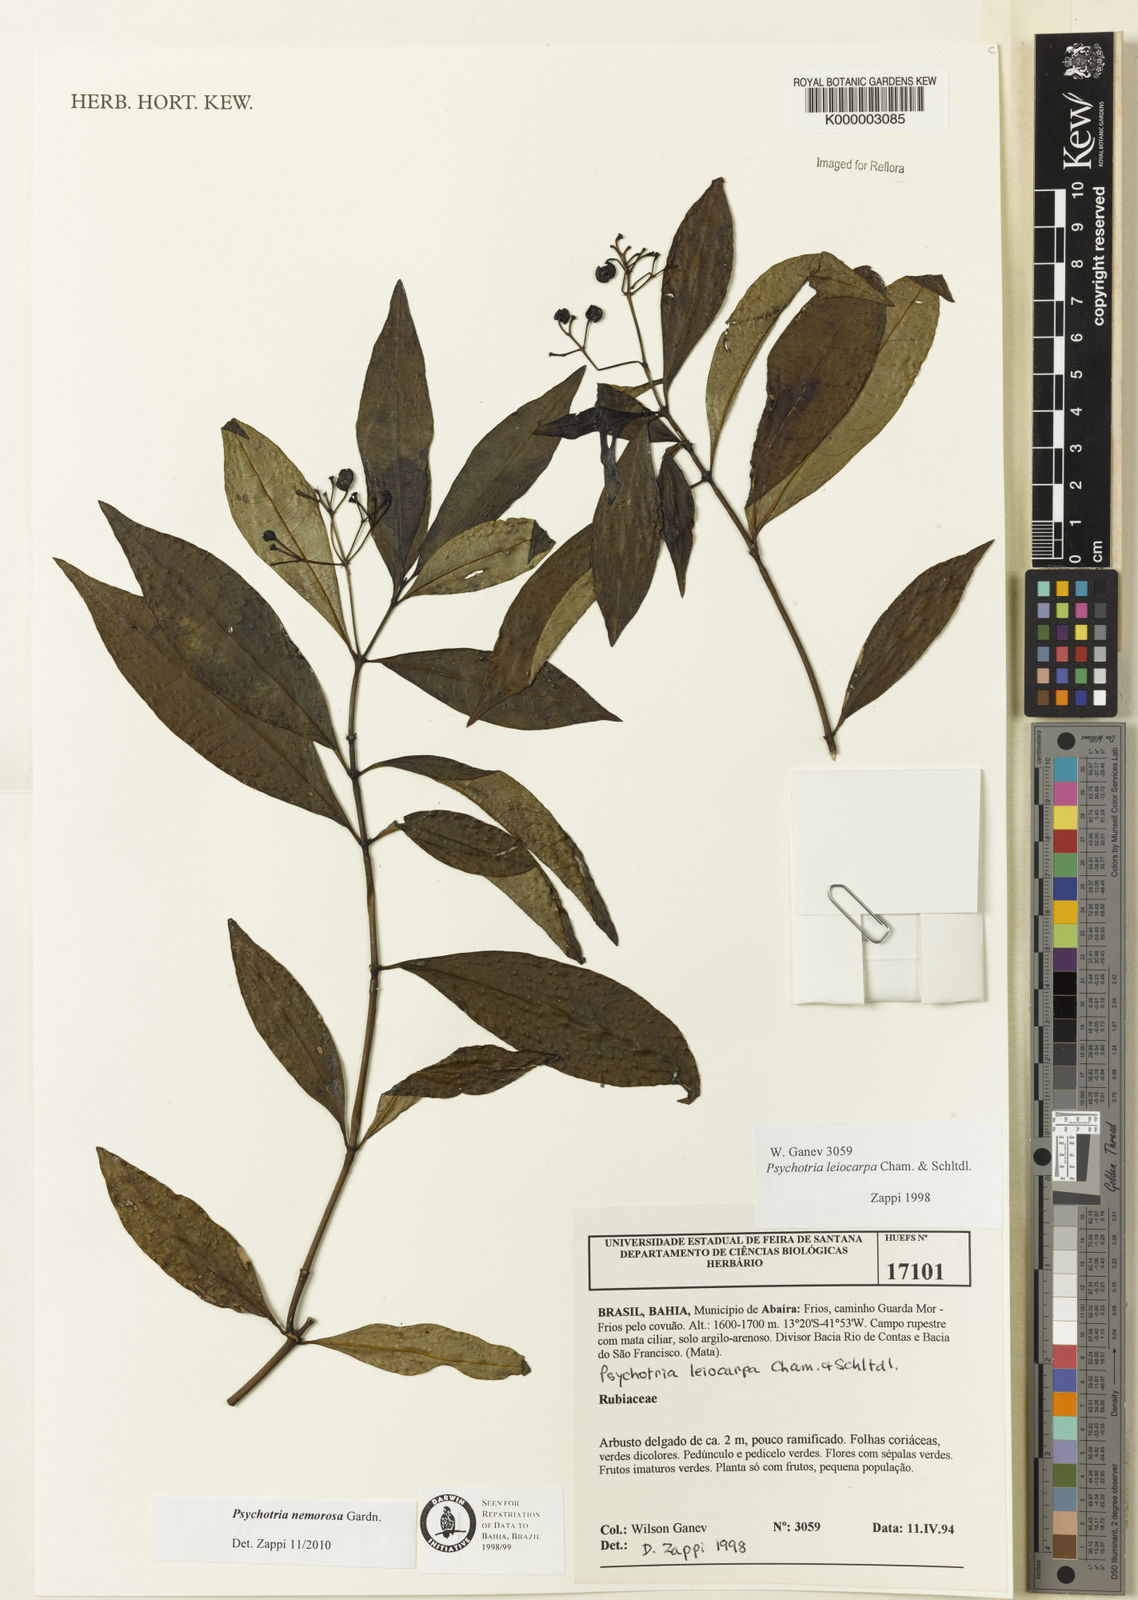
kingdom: Plantae
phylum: Tracheophyta
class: Magnoliopsida
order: Gentianales
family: Rubiaceae
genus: Psychotria
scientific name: Psychotria nemorosa
